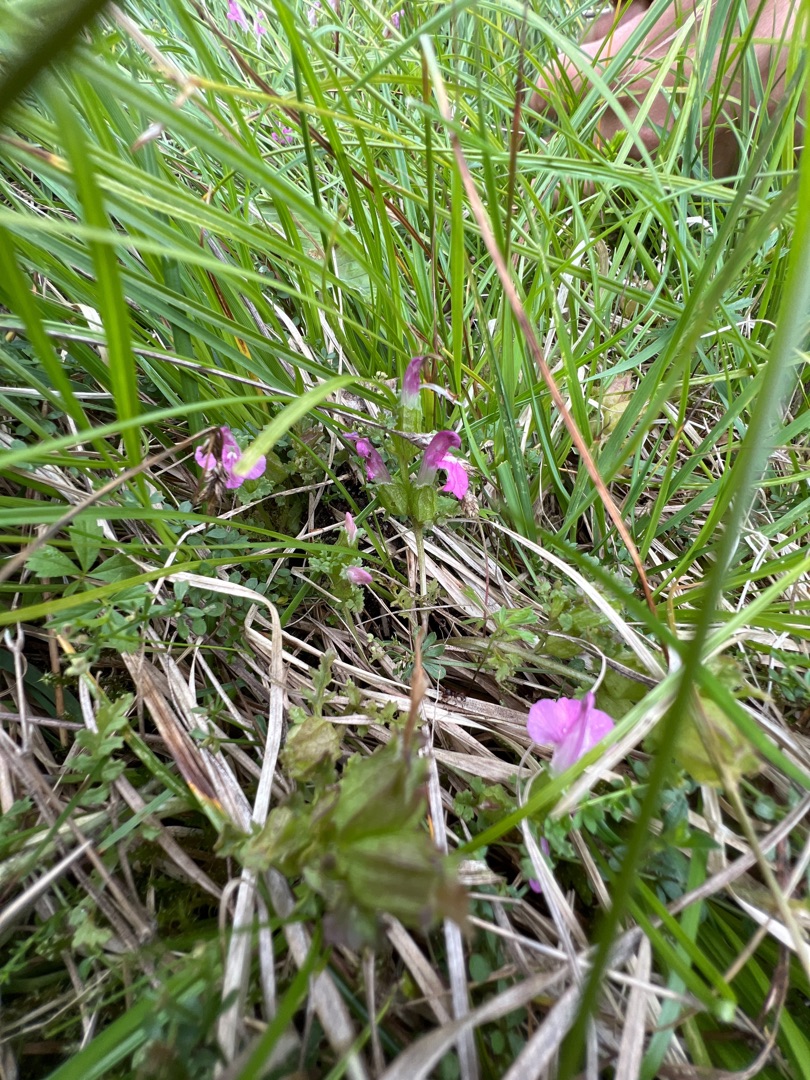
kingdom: Plantae
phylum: Tracheophyta
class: Magnoliopsida
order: Lamiales
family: Orobanchaceae
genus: Pedicularis
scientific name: Pedicularis sylvatica
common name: Mose-troldurt
